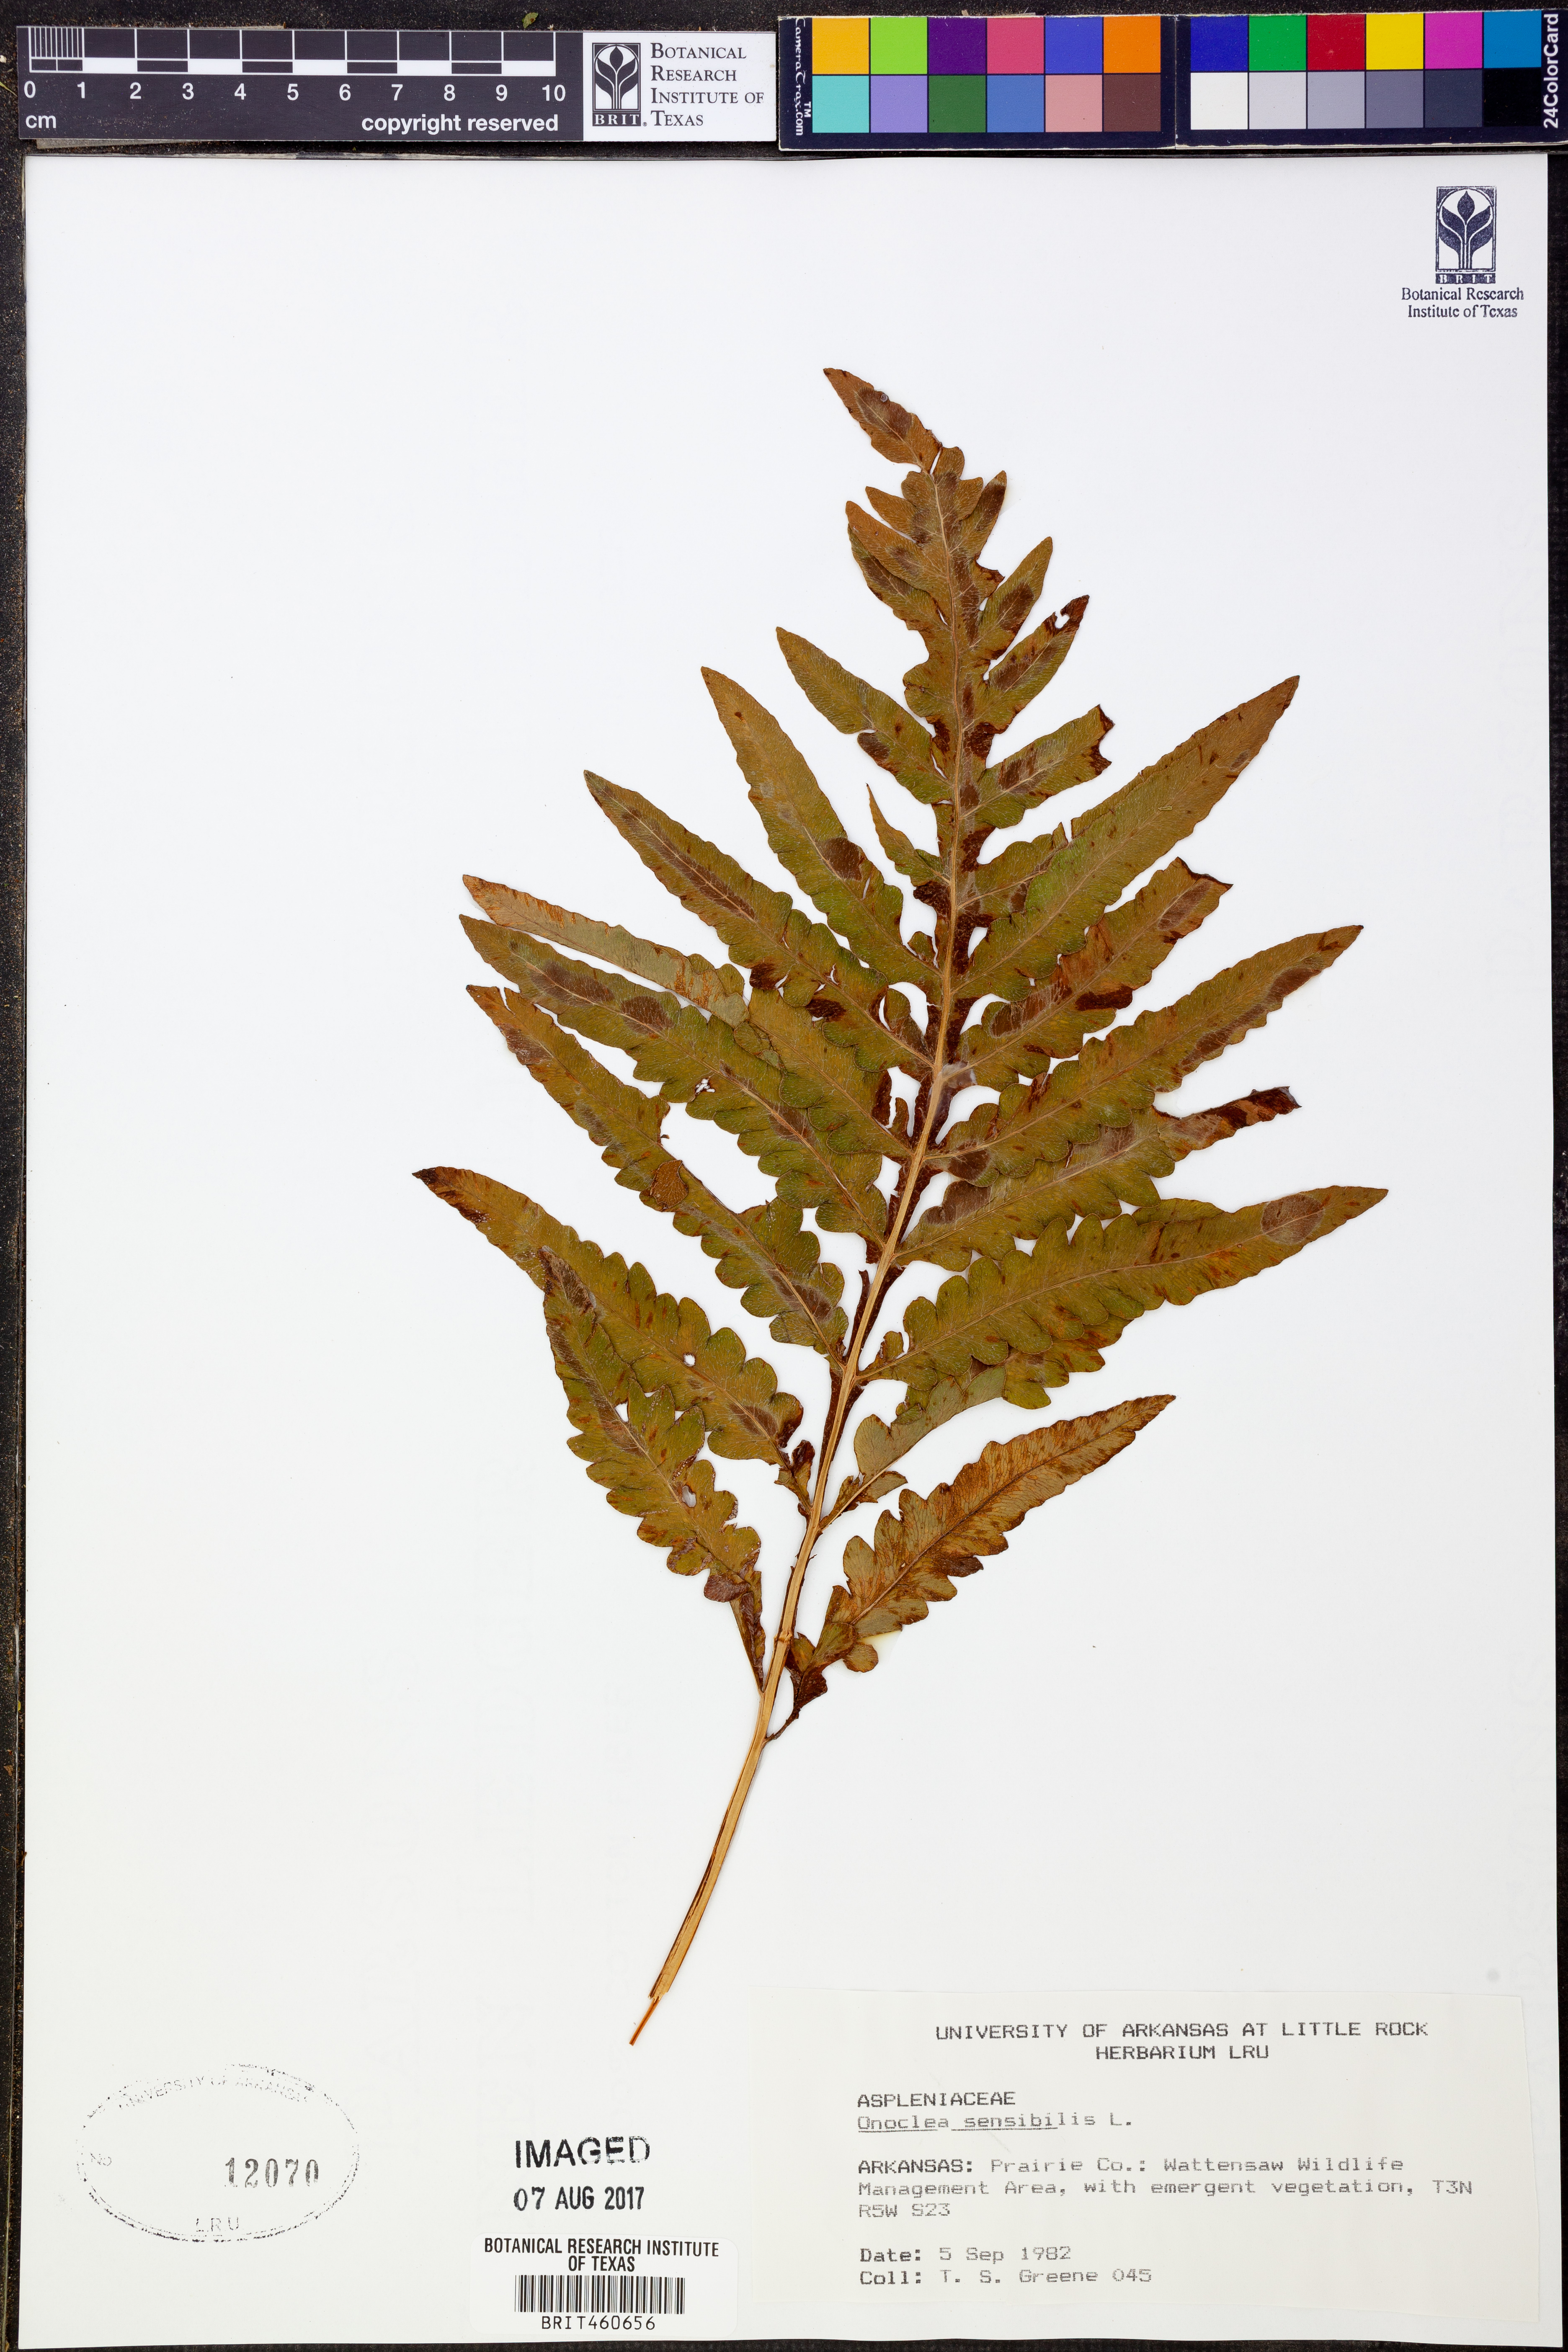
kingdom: Plantae
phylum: Tracheophyta
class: Polypodiopsida
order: Polypodiales
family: Onocleaceae
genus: Onoclea
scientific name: Onoclea sensibilis
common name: Sensitive fern
